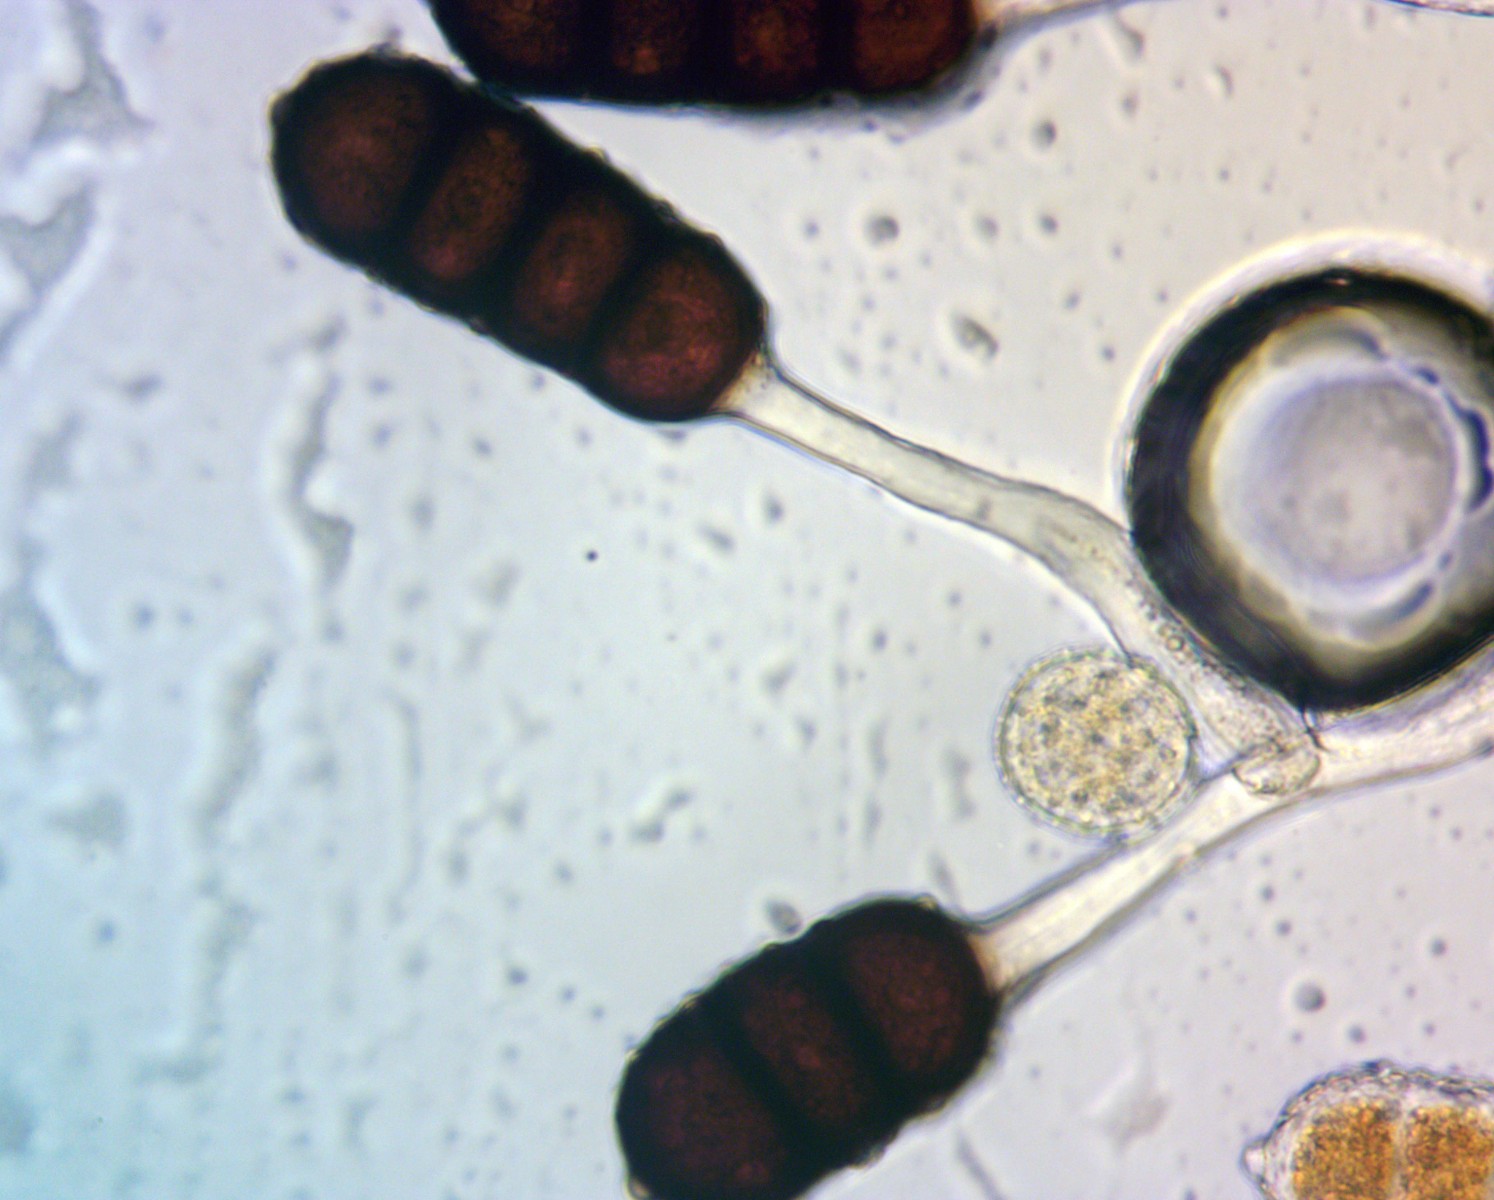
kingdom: Fungi
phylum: Basidiomycota
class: Pucciniomycetes
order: Pucciniales
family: Phragmidiaceae
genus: Phragmidium
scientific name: Phragmidium violaceum
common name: violet flercellerust
